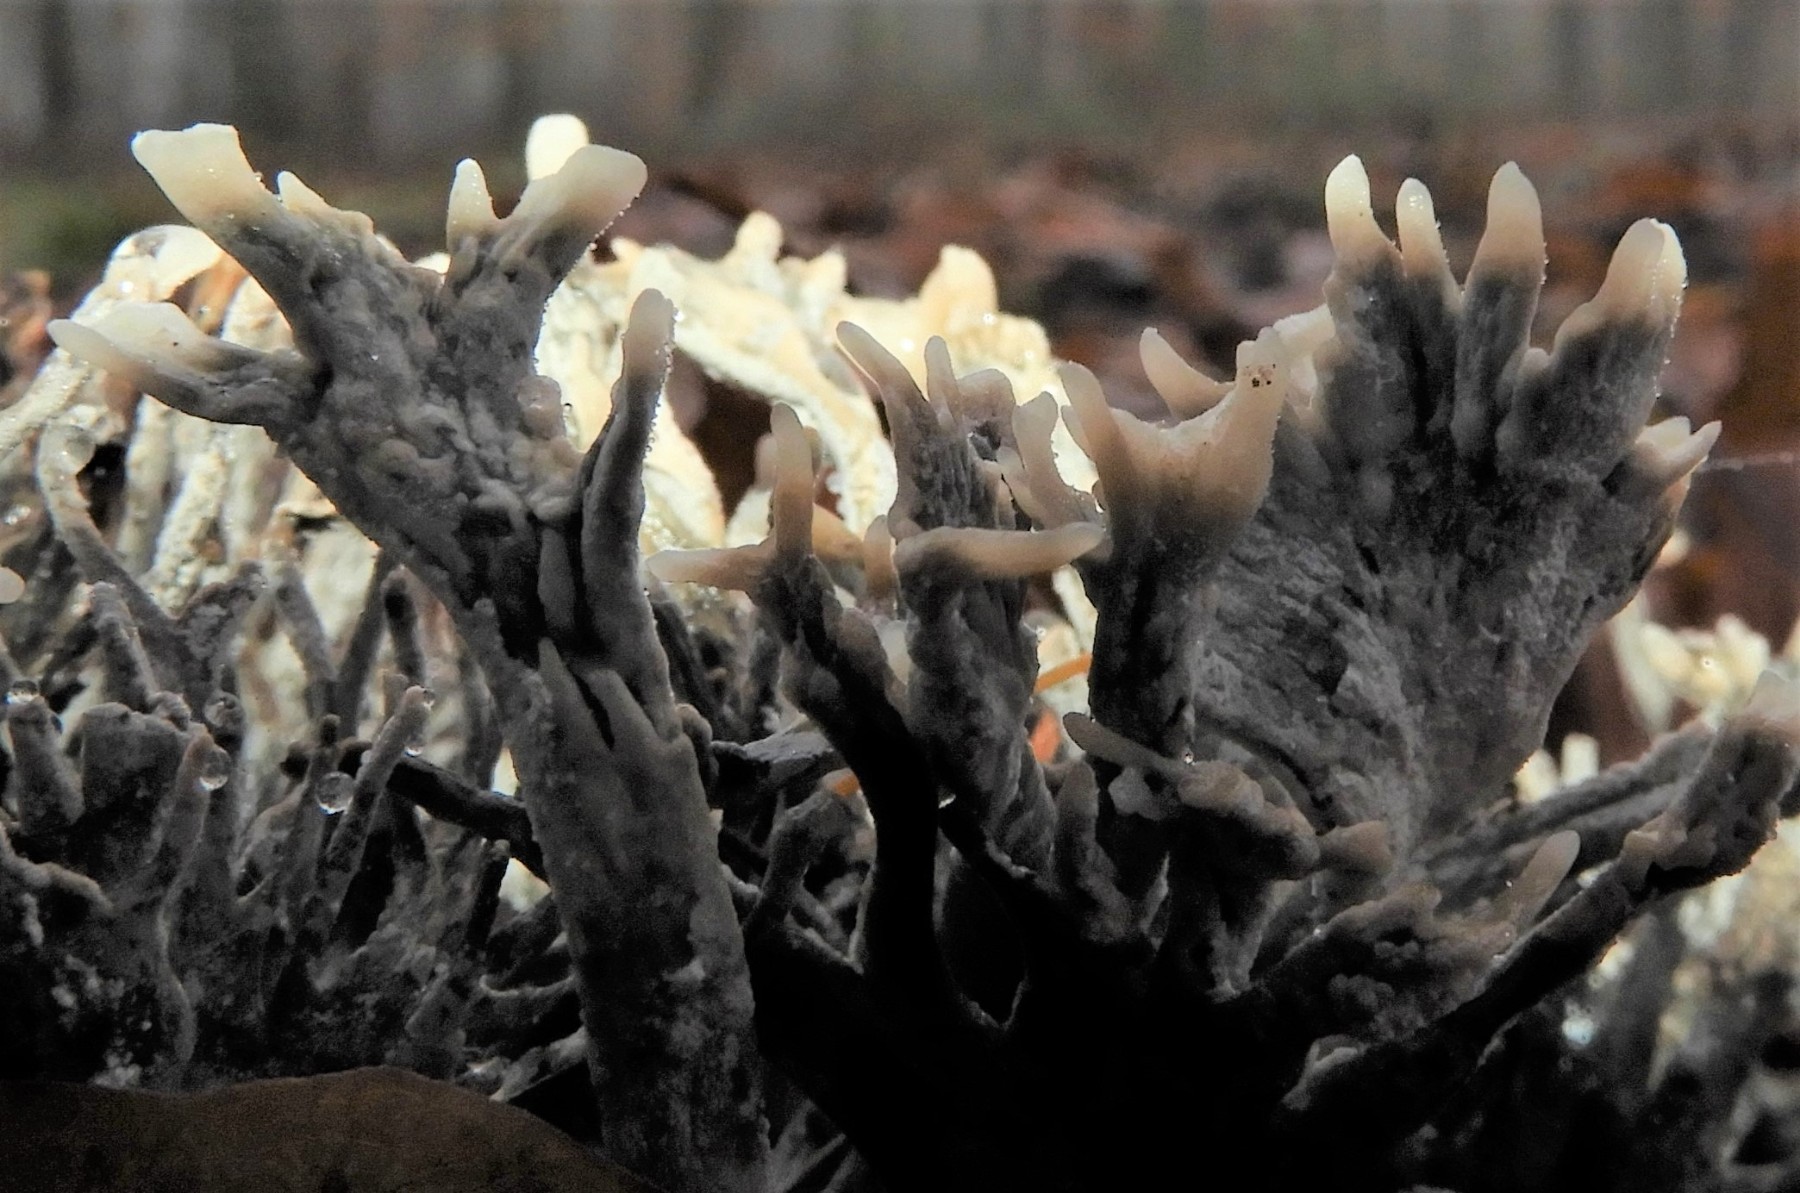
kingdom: Fungi
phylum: Ascomycota
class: Sordariomycetes
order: Xylariales
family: Xylariaceae
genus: Xylaria
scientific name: Xylaria hypoxylon
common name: grenet stødsvamp
